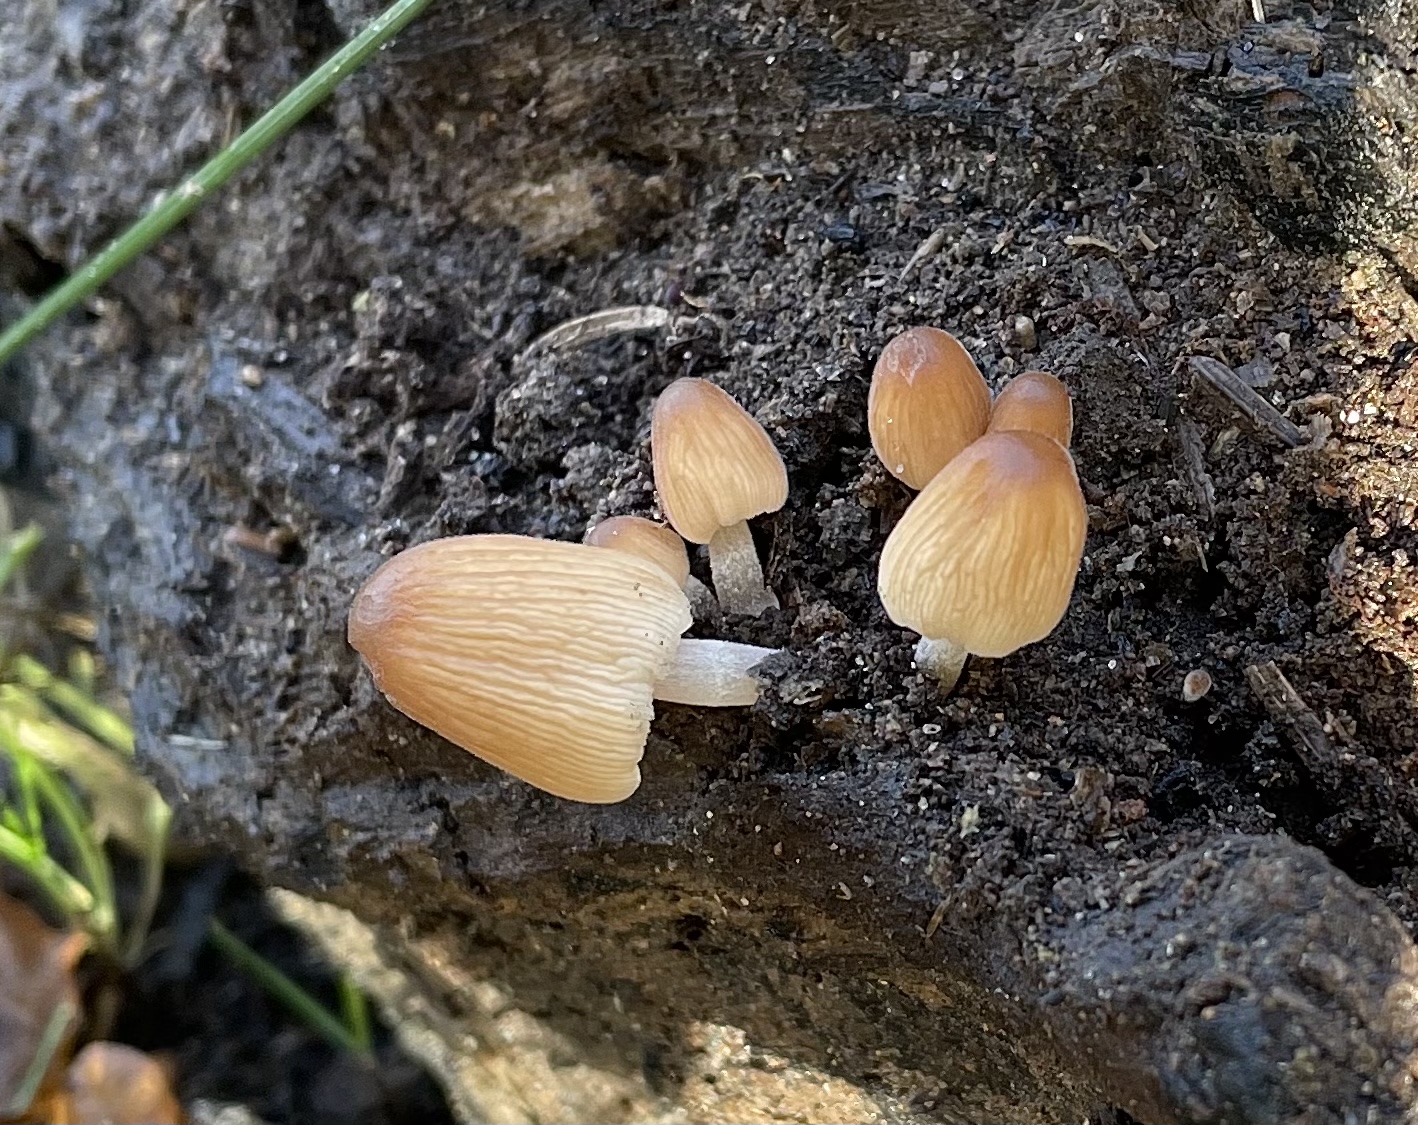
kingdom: Fungi
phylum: Basidiomycota
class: Agaricomycetes
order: Agaricales
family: Psathyrellaceae
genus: Tulosesus
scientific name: Tulosesus angulatus
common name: kul-blækhat
